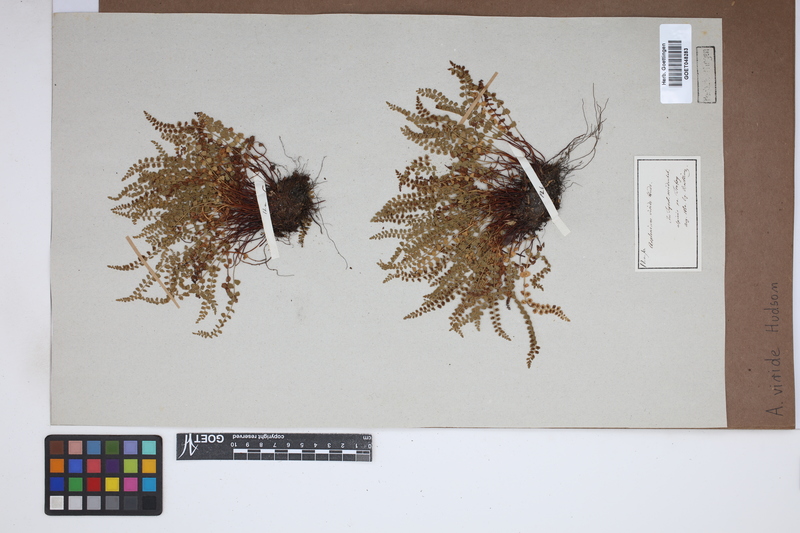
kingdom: Plantae
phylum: Tracheophyta
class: Polypodiopsida
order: Polypodiales
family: Aspleniaceae
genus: Asplenium
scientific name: Asplenium viride
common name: Green spleenwort
